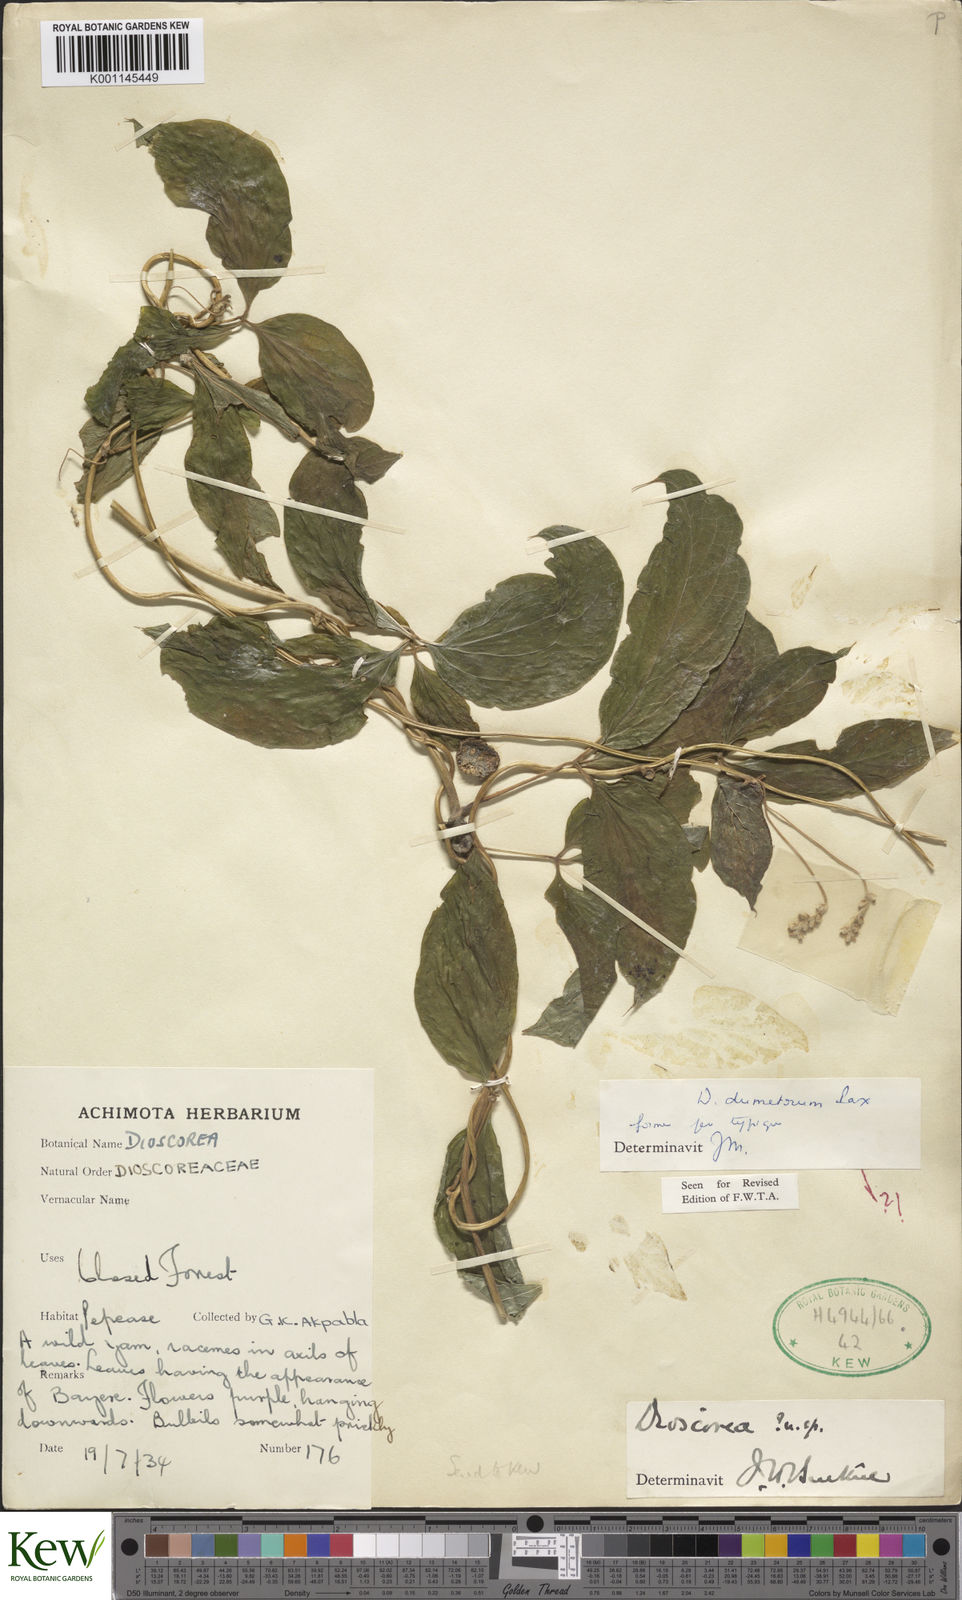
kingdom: Plantae
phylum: Tracheophyta
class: Liliopsida
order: Dioscoreales
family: Dioscoreaceae
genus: Dioscorea
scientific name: Dioscorea dumetorum
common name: African bitter yam
